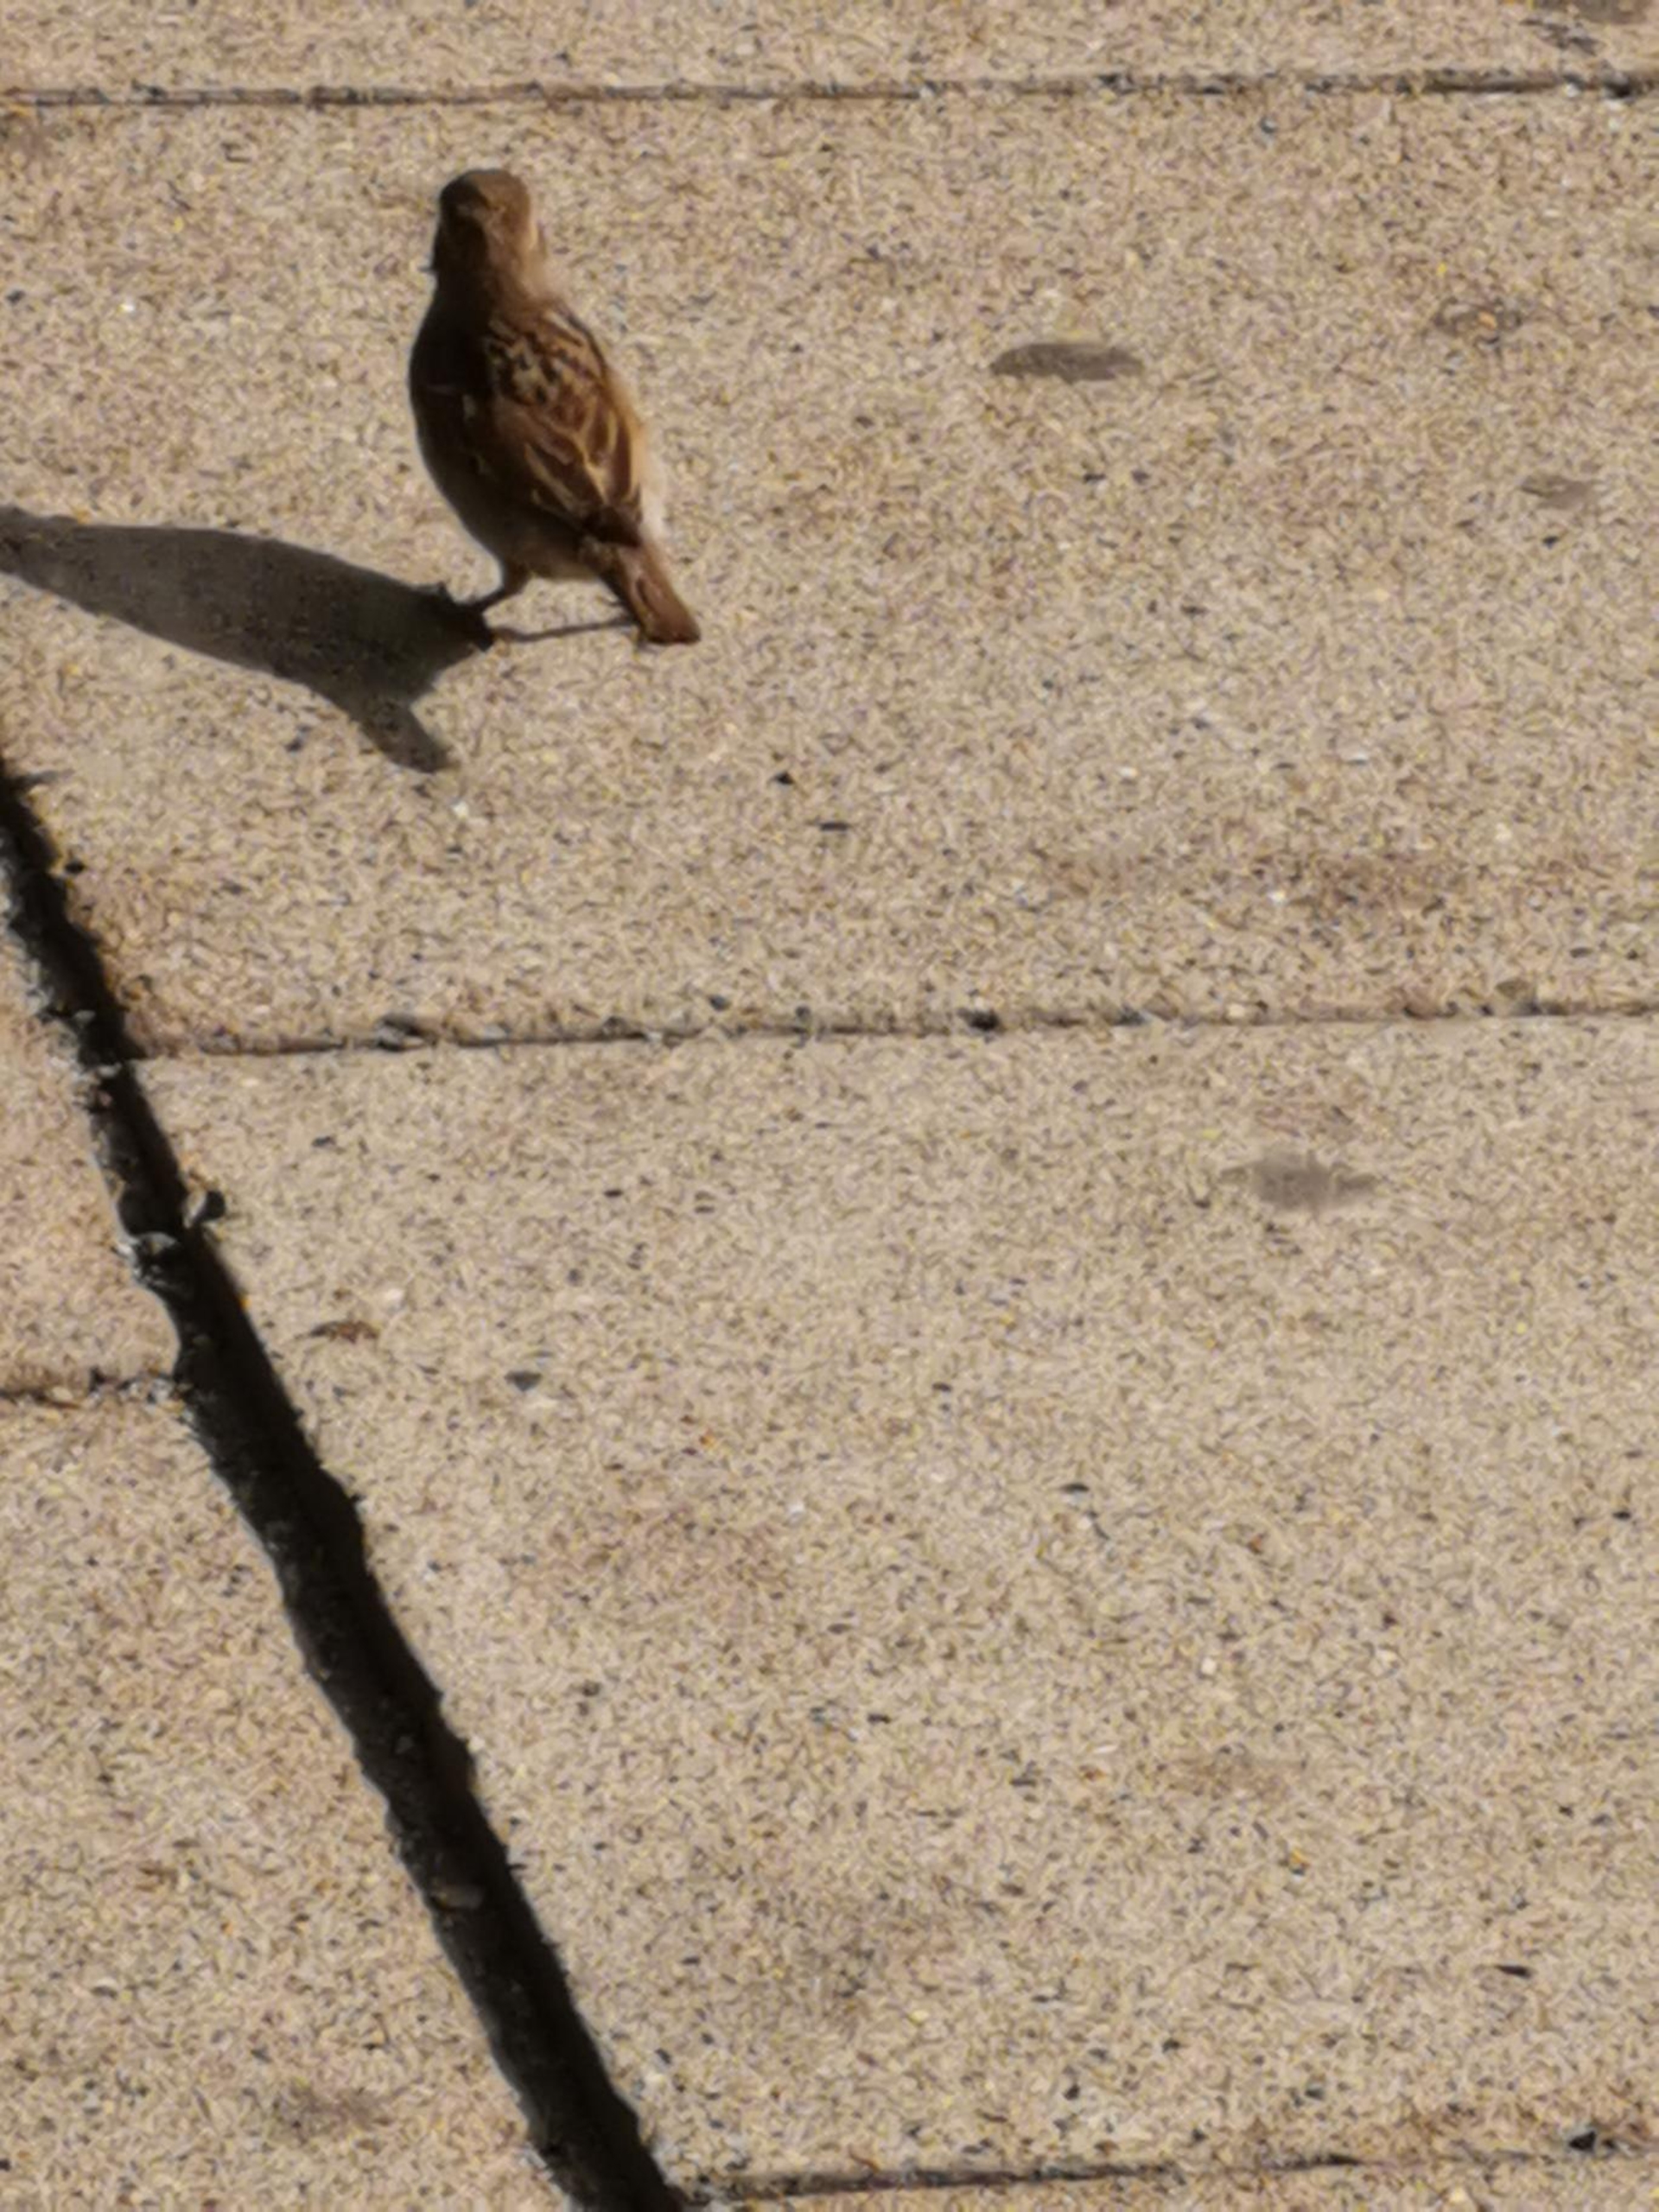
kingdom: Animalia
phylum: Chordata
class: Aves
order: Passeriformes
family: Passeridae
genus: Passer
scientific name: Passer domesticus
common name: Gråspurv
